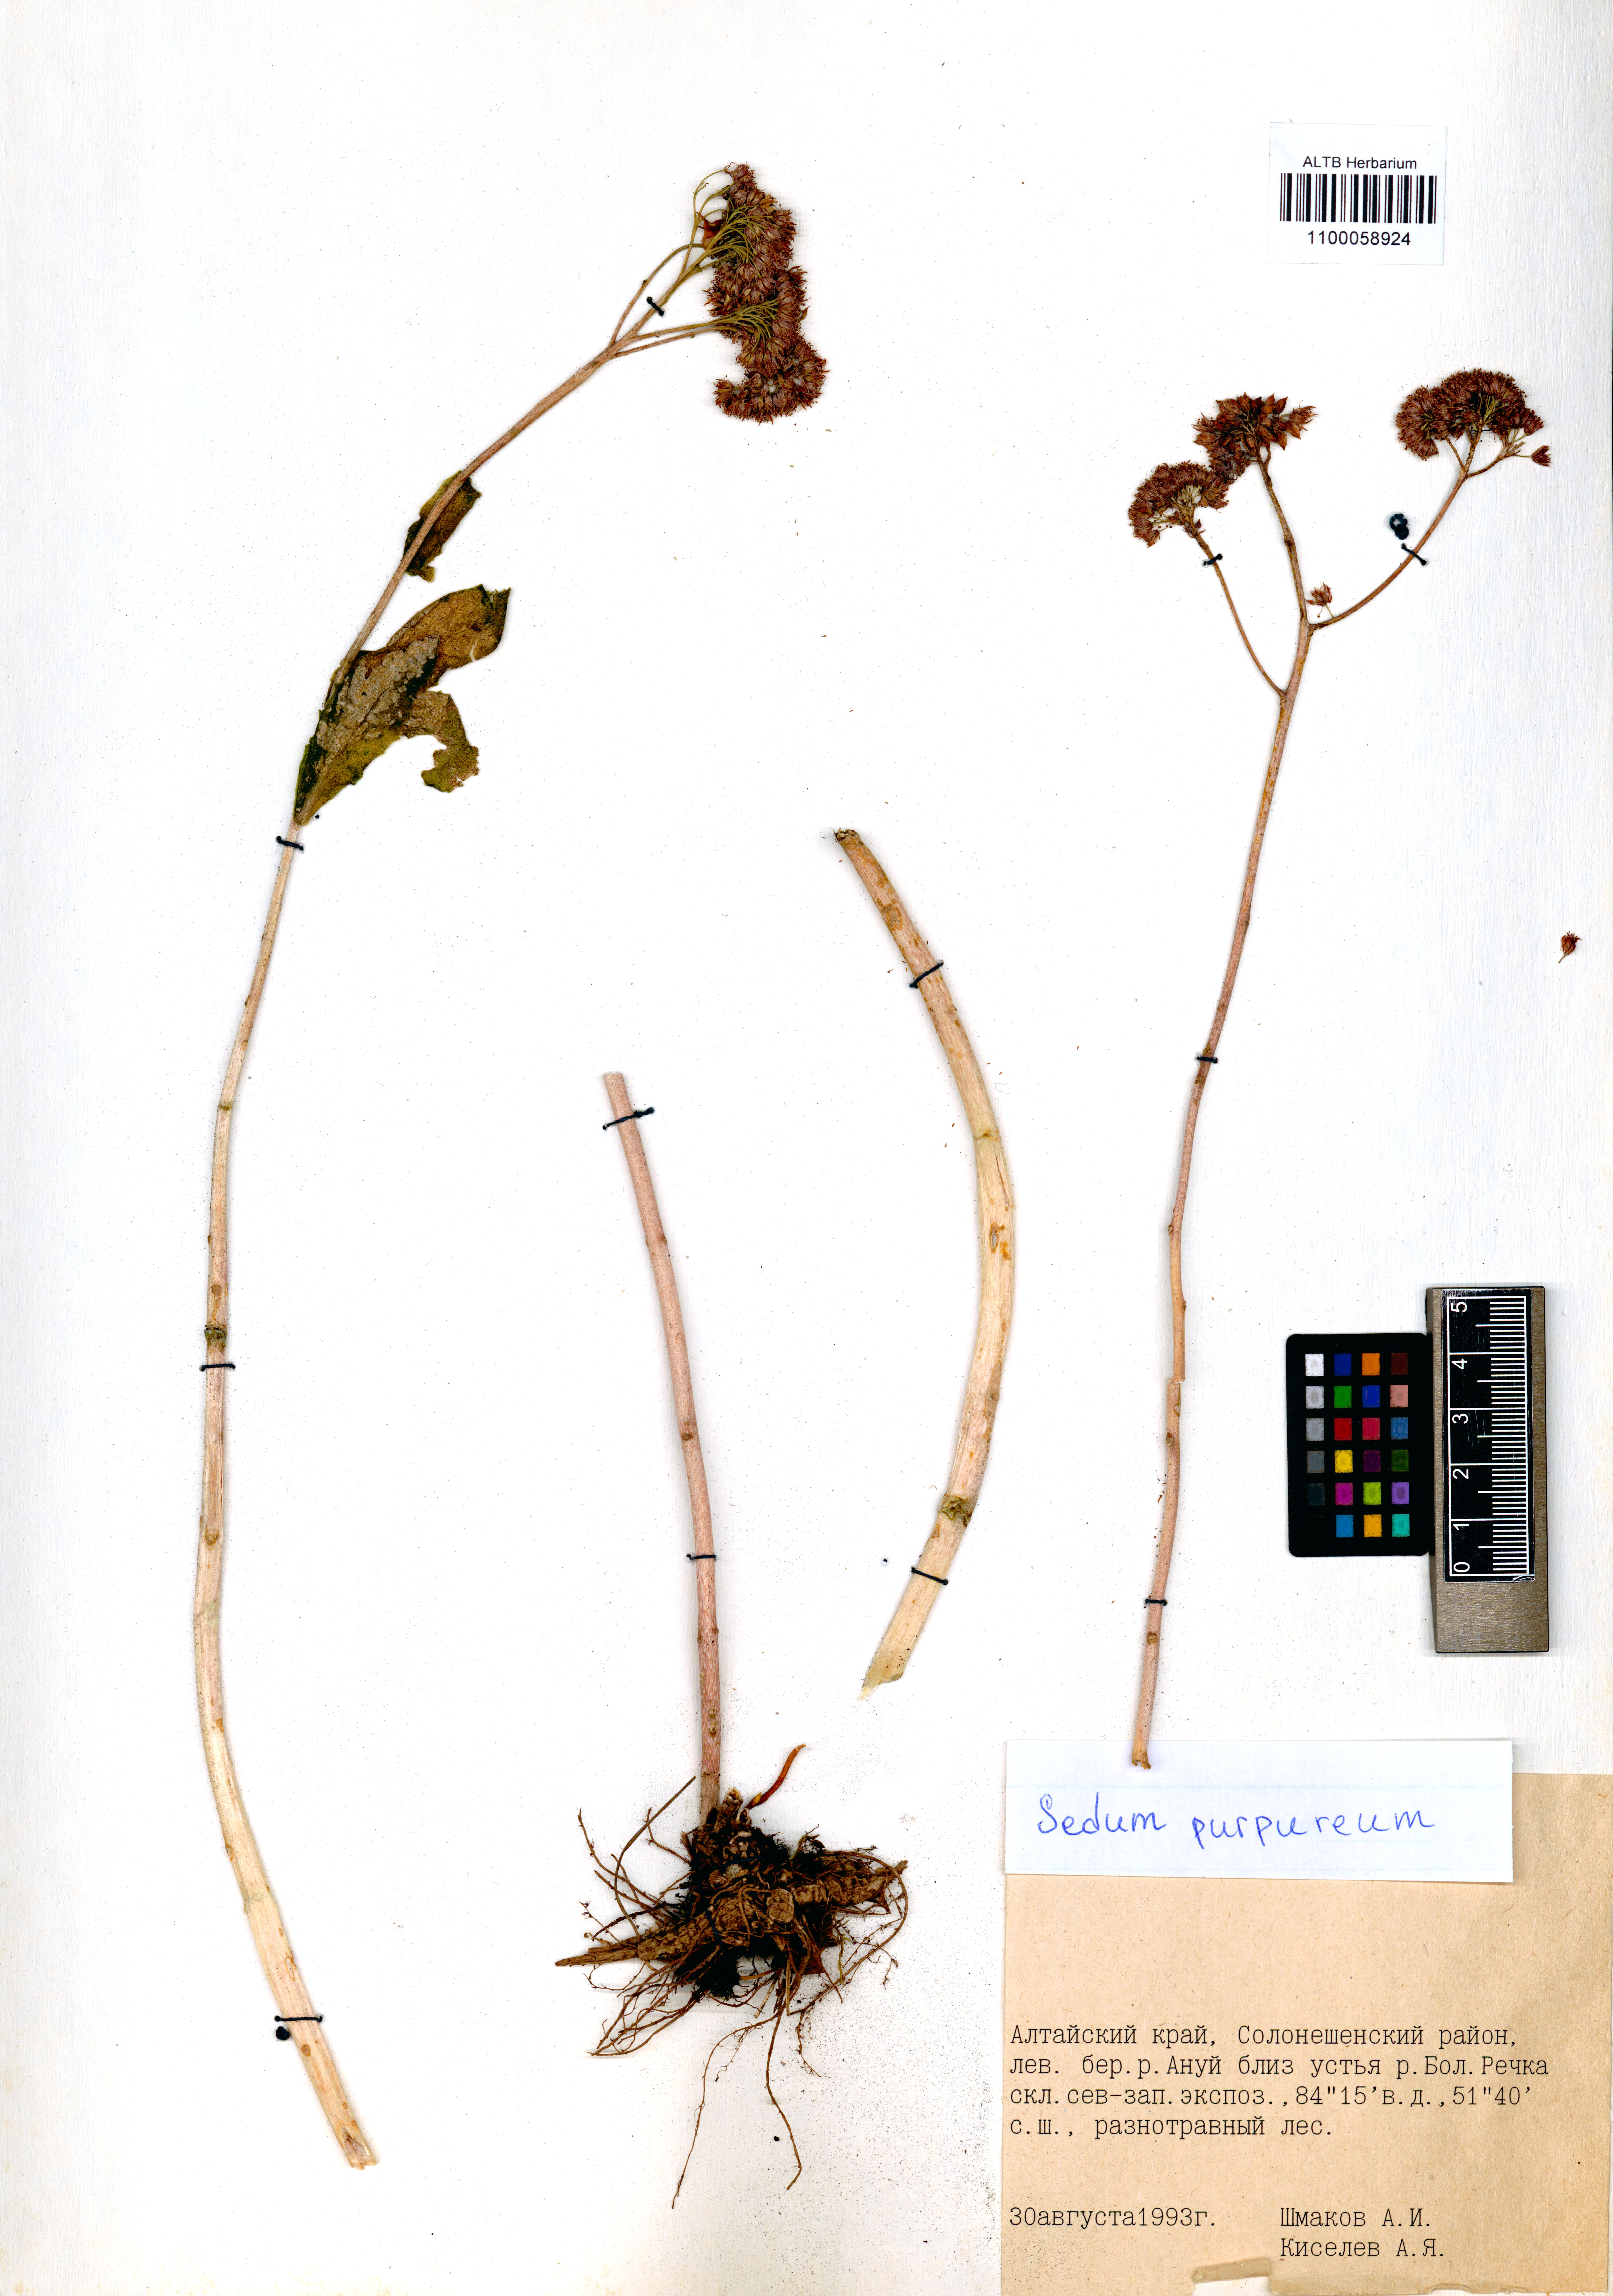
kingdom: Plantae
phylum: Tracheophyta
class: Magnoliopsida
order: Saxifragales
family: Crassulaceae
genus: Hylotelephium
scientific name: Hylotelephium telephium
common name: Live-forever
